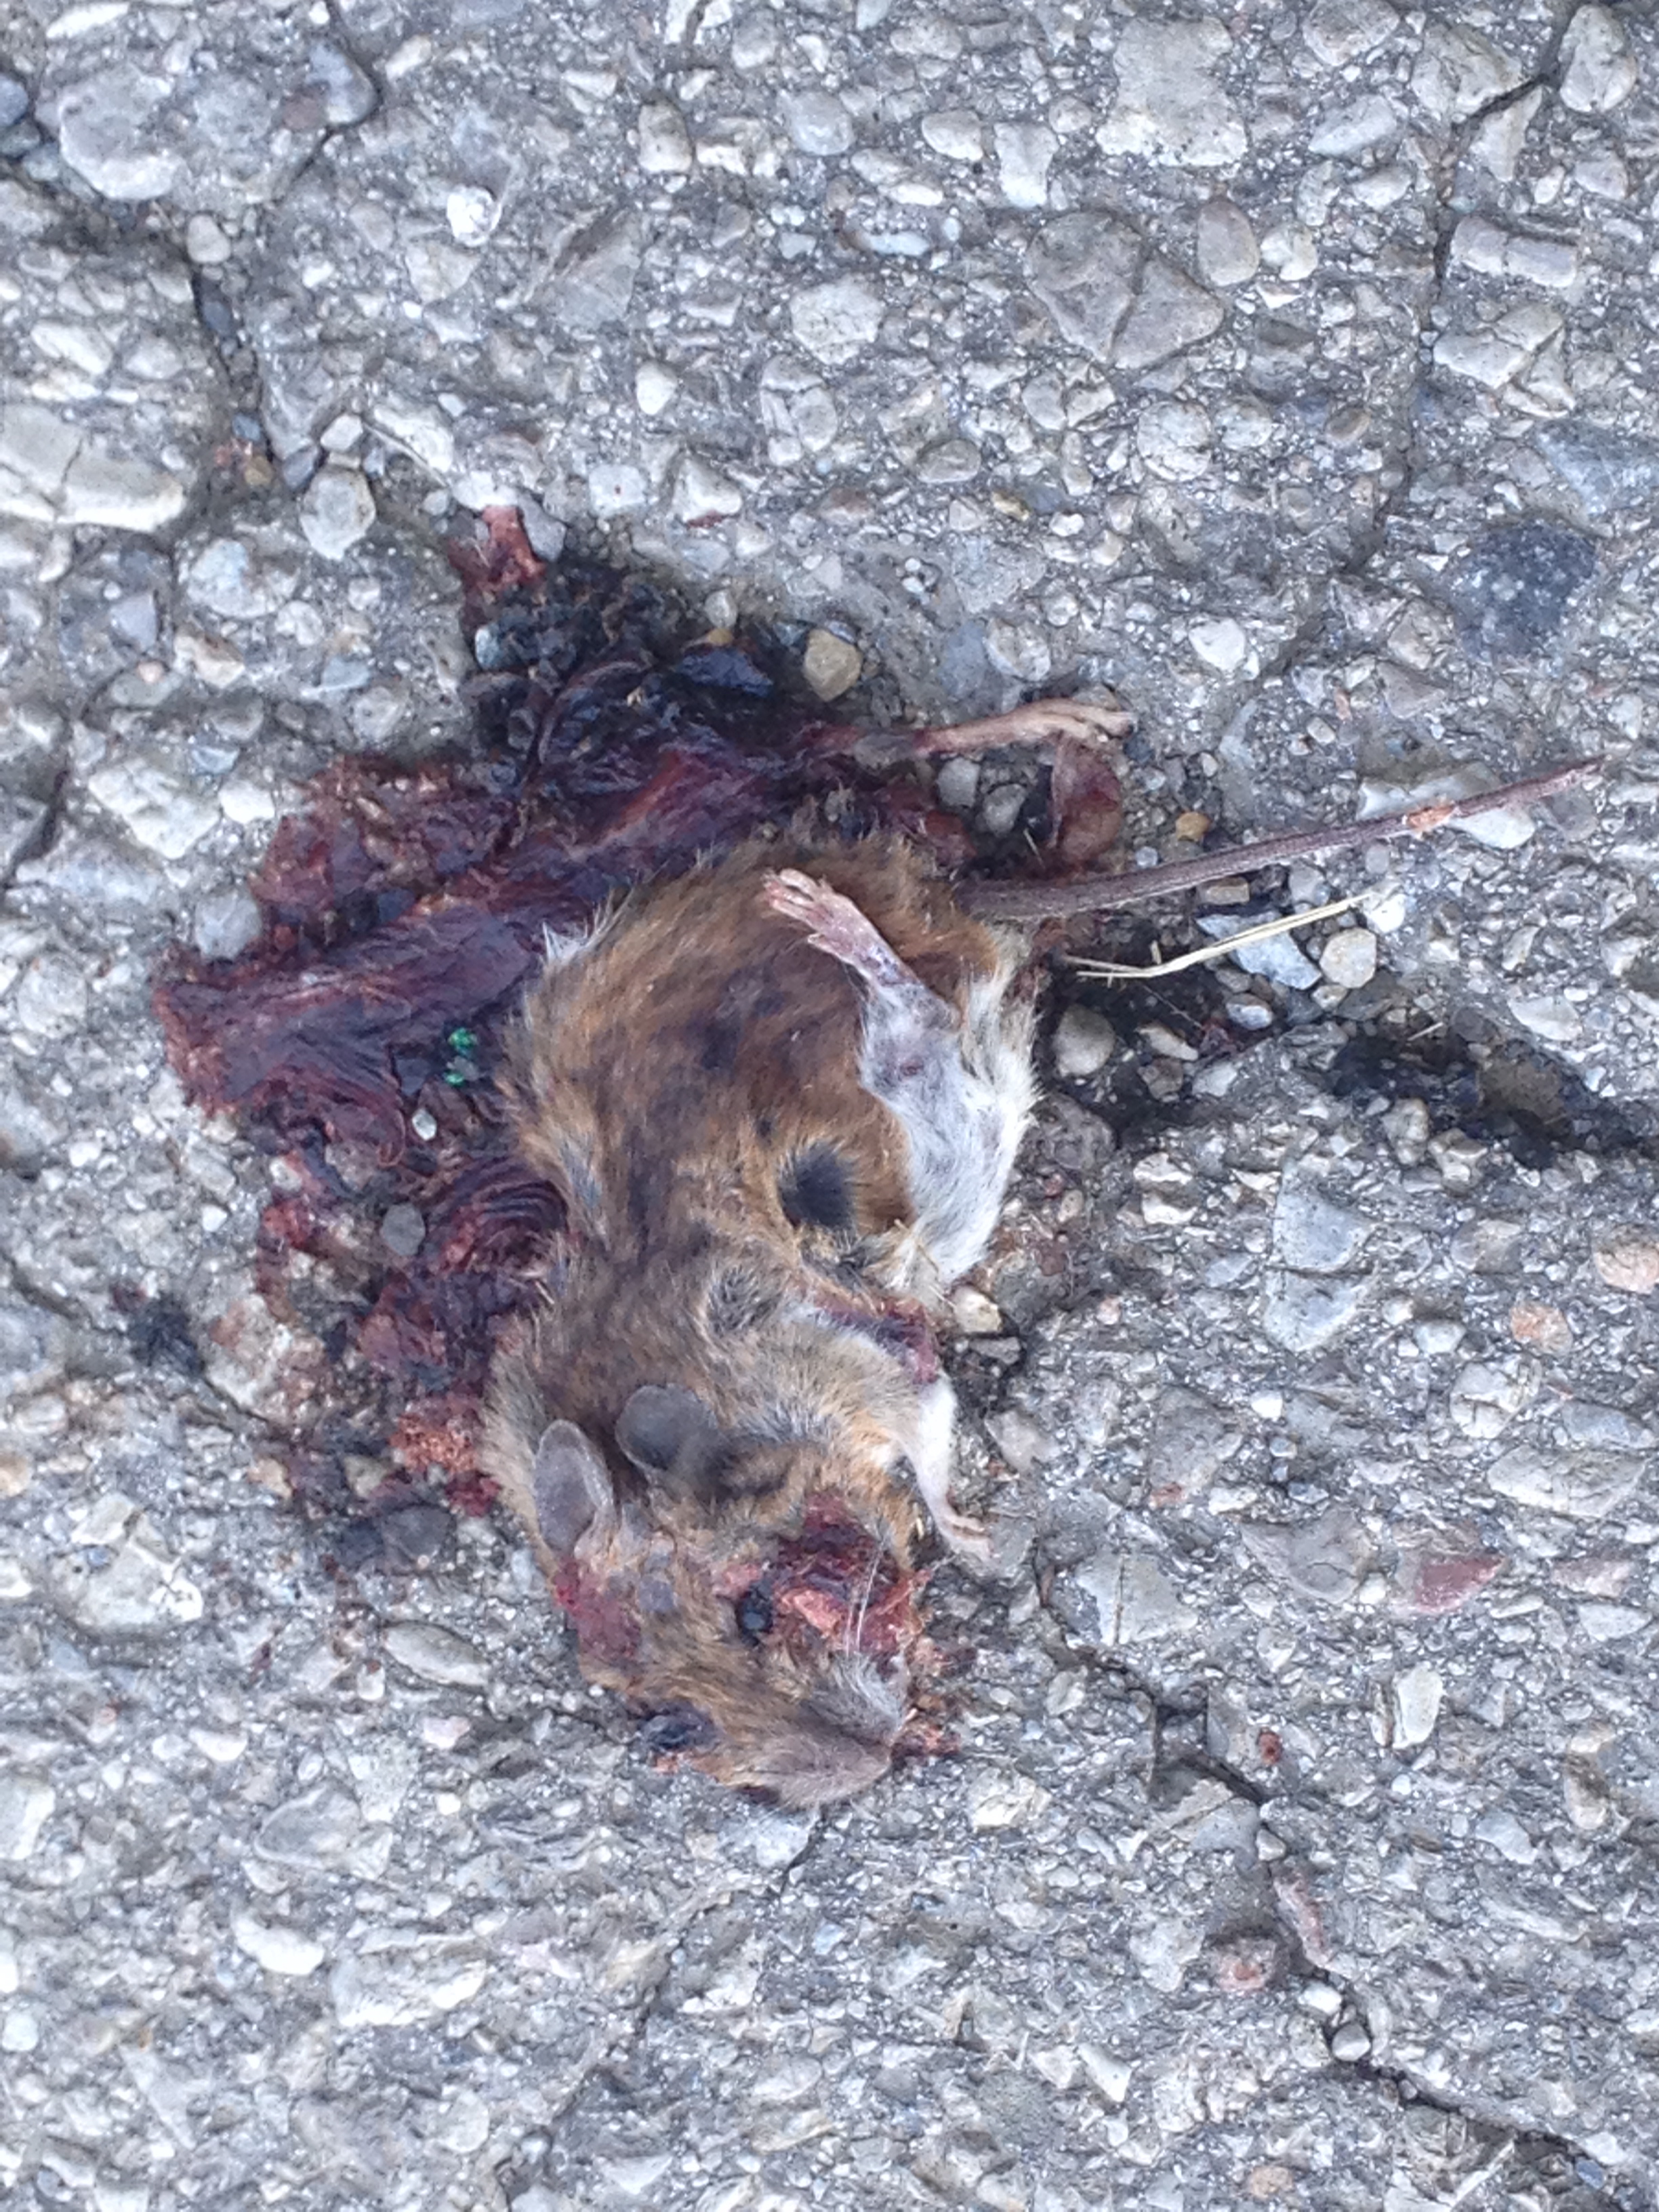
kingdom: Animalia
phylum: Chordata
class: Mammalia
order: Rodentia
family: Muridae
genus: Apodemus
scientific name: Apodemus
